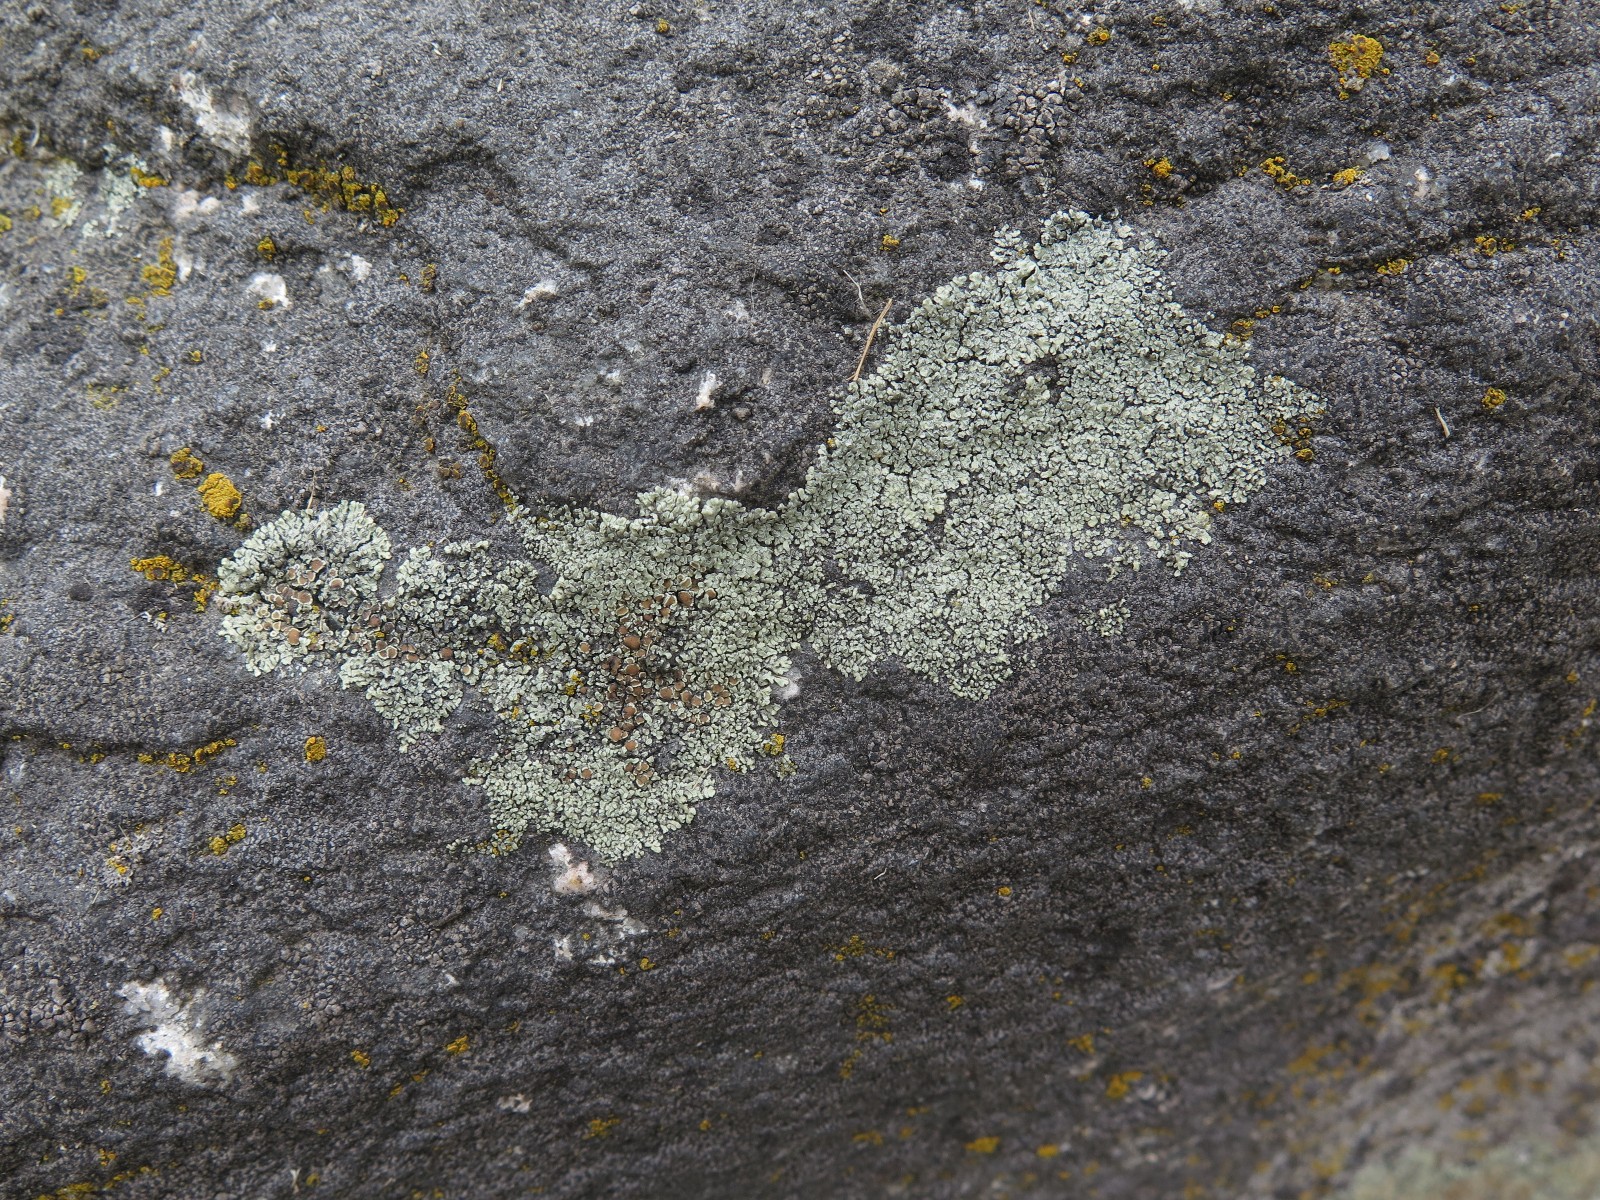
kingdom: Fungi
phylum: Ascomycota
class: Lecanoromycetes
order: Lecanorales
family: Lecanoraceae
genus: Protoparmeliopsis
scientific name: Protoparmeliopsis muralis
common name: randfliget kantskivelav
